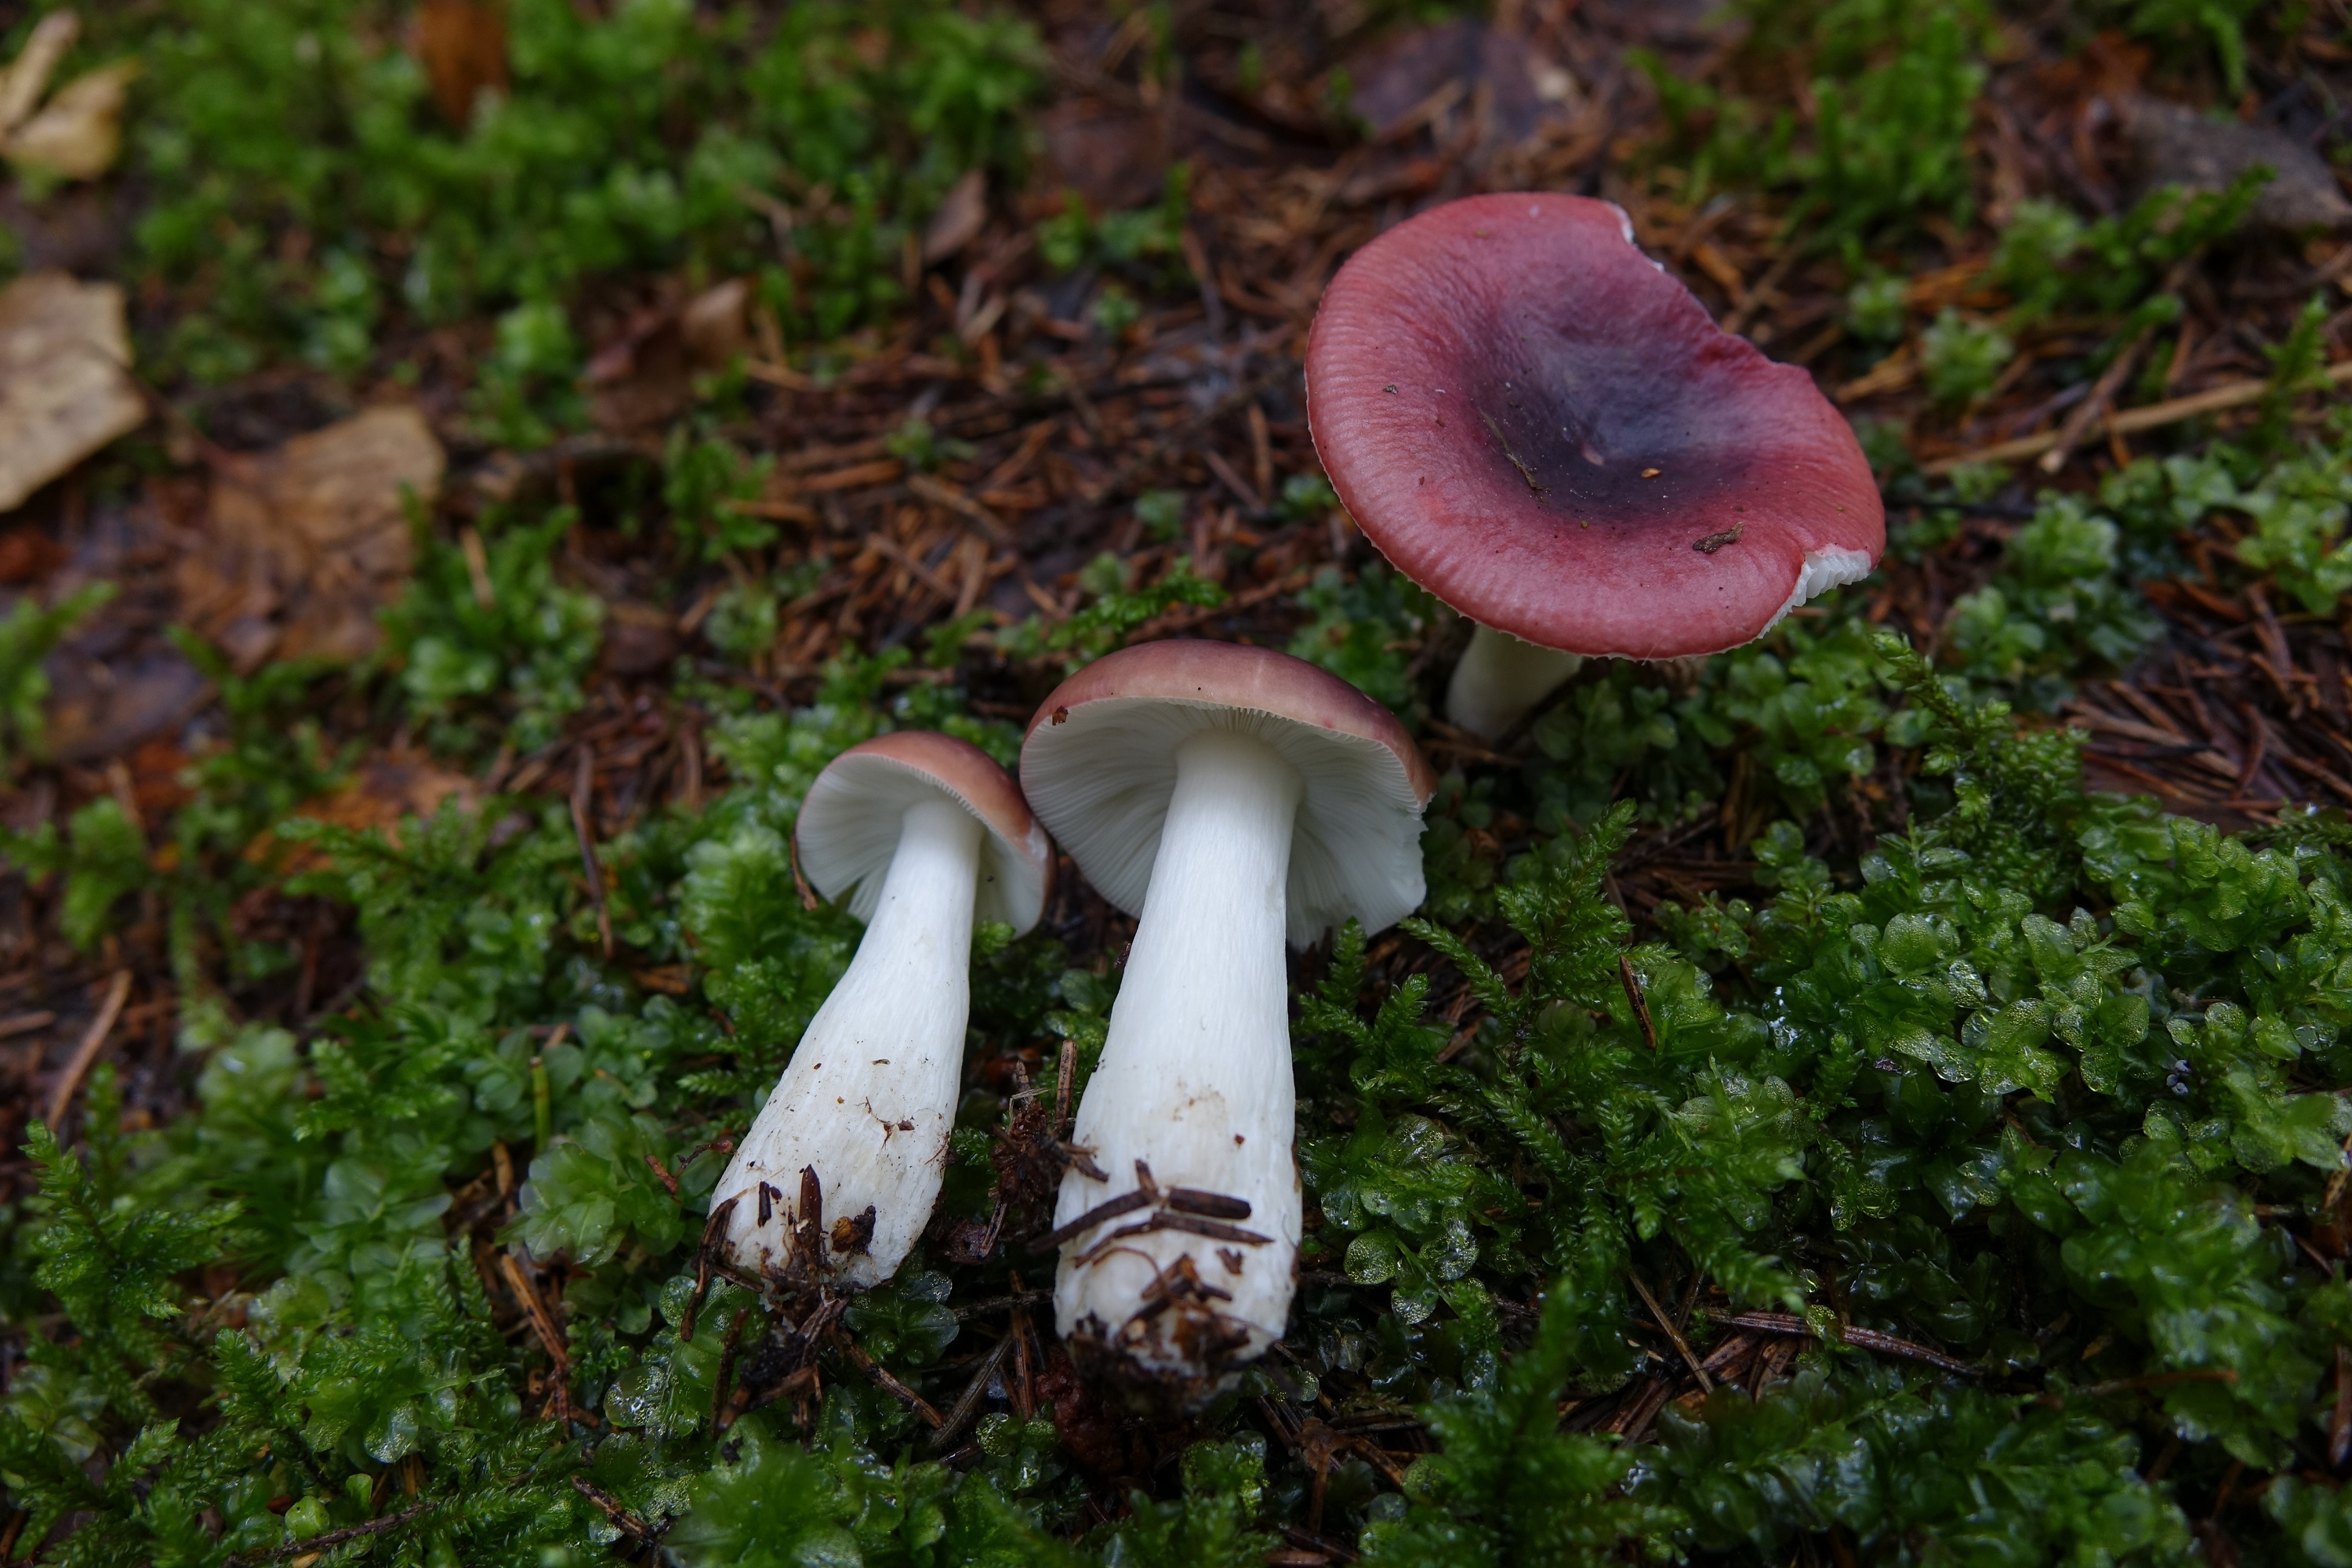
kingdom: Fungi
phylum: Basidiomycota
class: Agaricomycetes
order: Russulales
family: Russulaceae
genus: Russula
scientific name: Russula atrorubens
